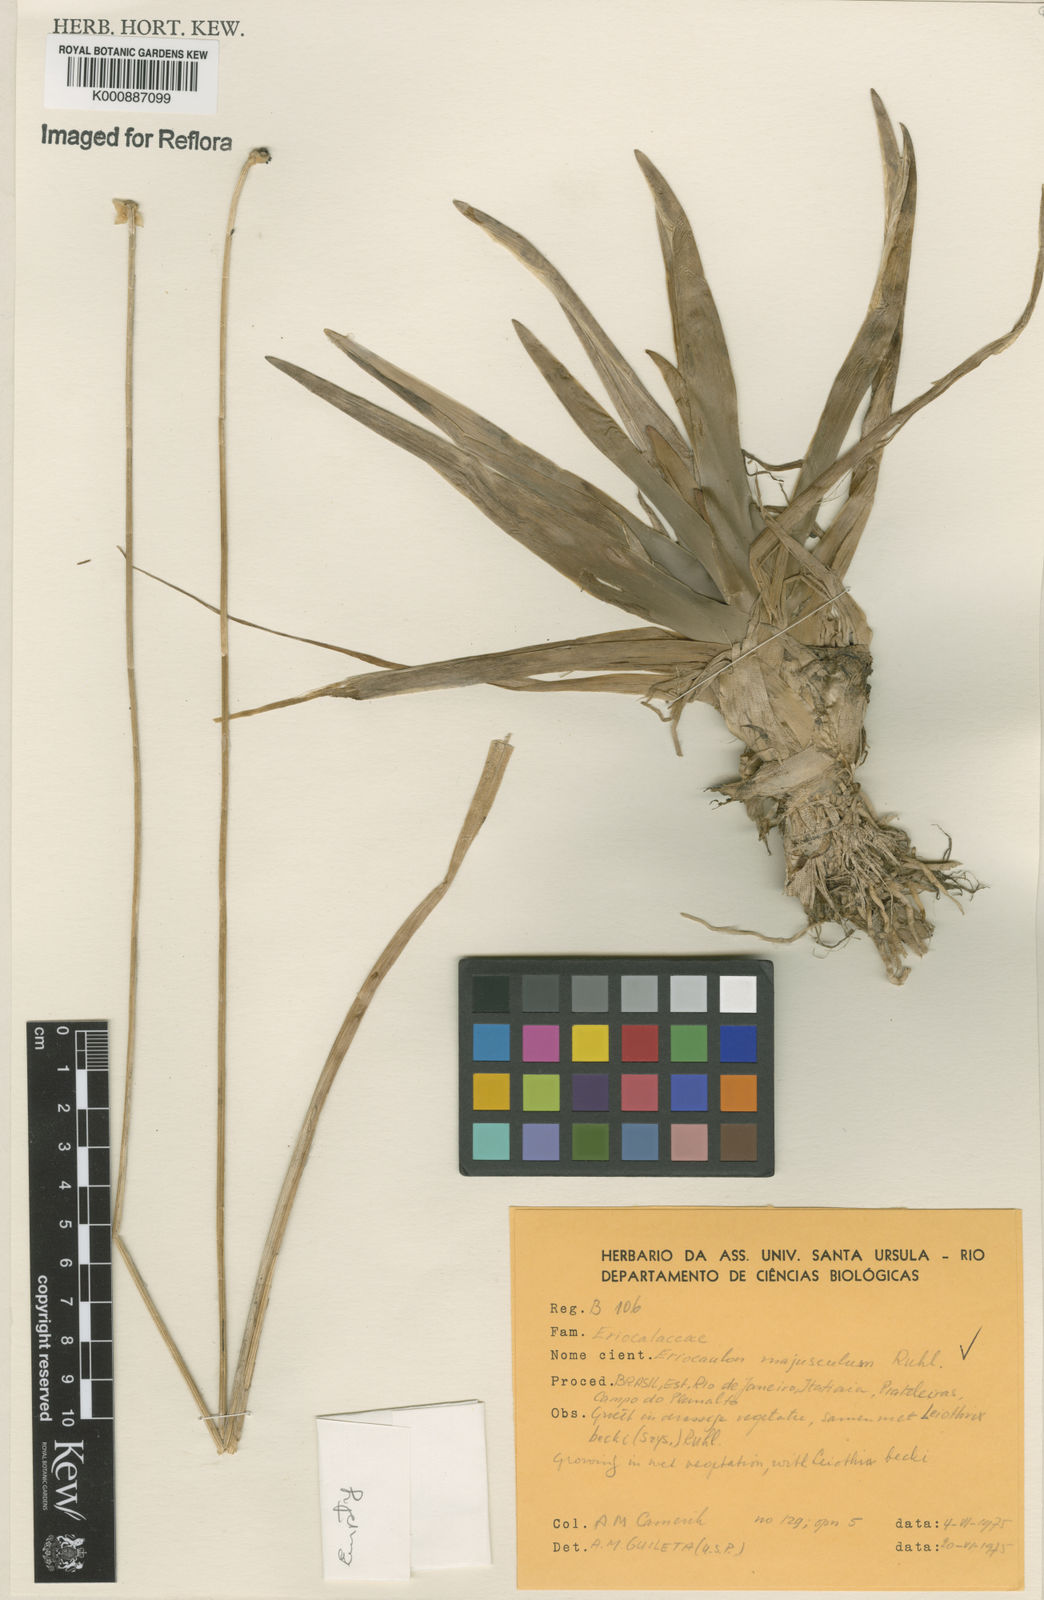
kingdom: Plantae
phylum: Tracheophyta
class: Liliopsida
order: Poales
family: Eriocaulaceae
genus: Eriocaulon
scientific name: Eriocaulon majusculum
